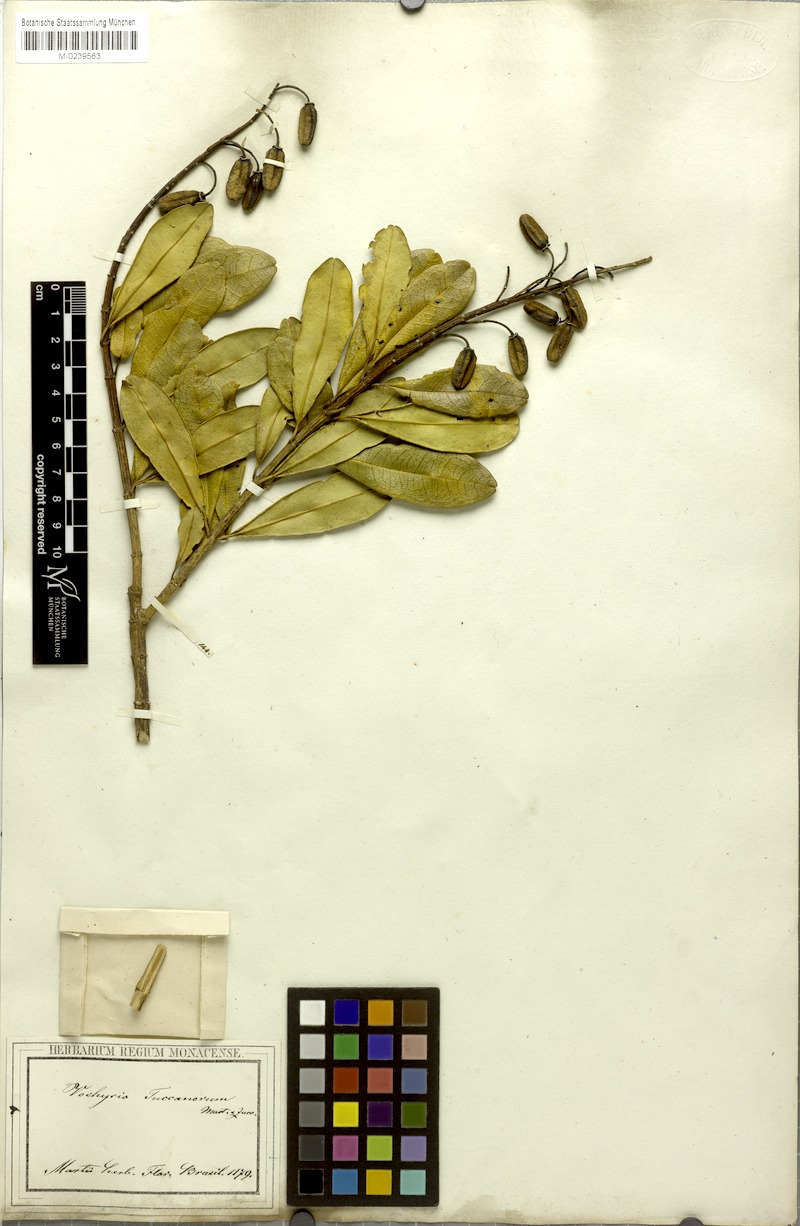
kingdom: Plantae
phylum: Tracheophyta
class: Magnoliopsida
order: Myrtales
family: Vochysiaceae
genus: Vochysia
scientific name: Vochysia tucanorum
